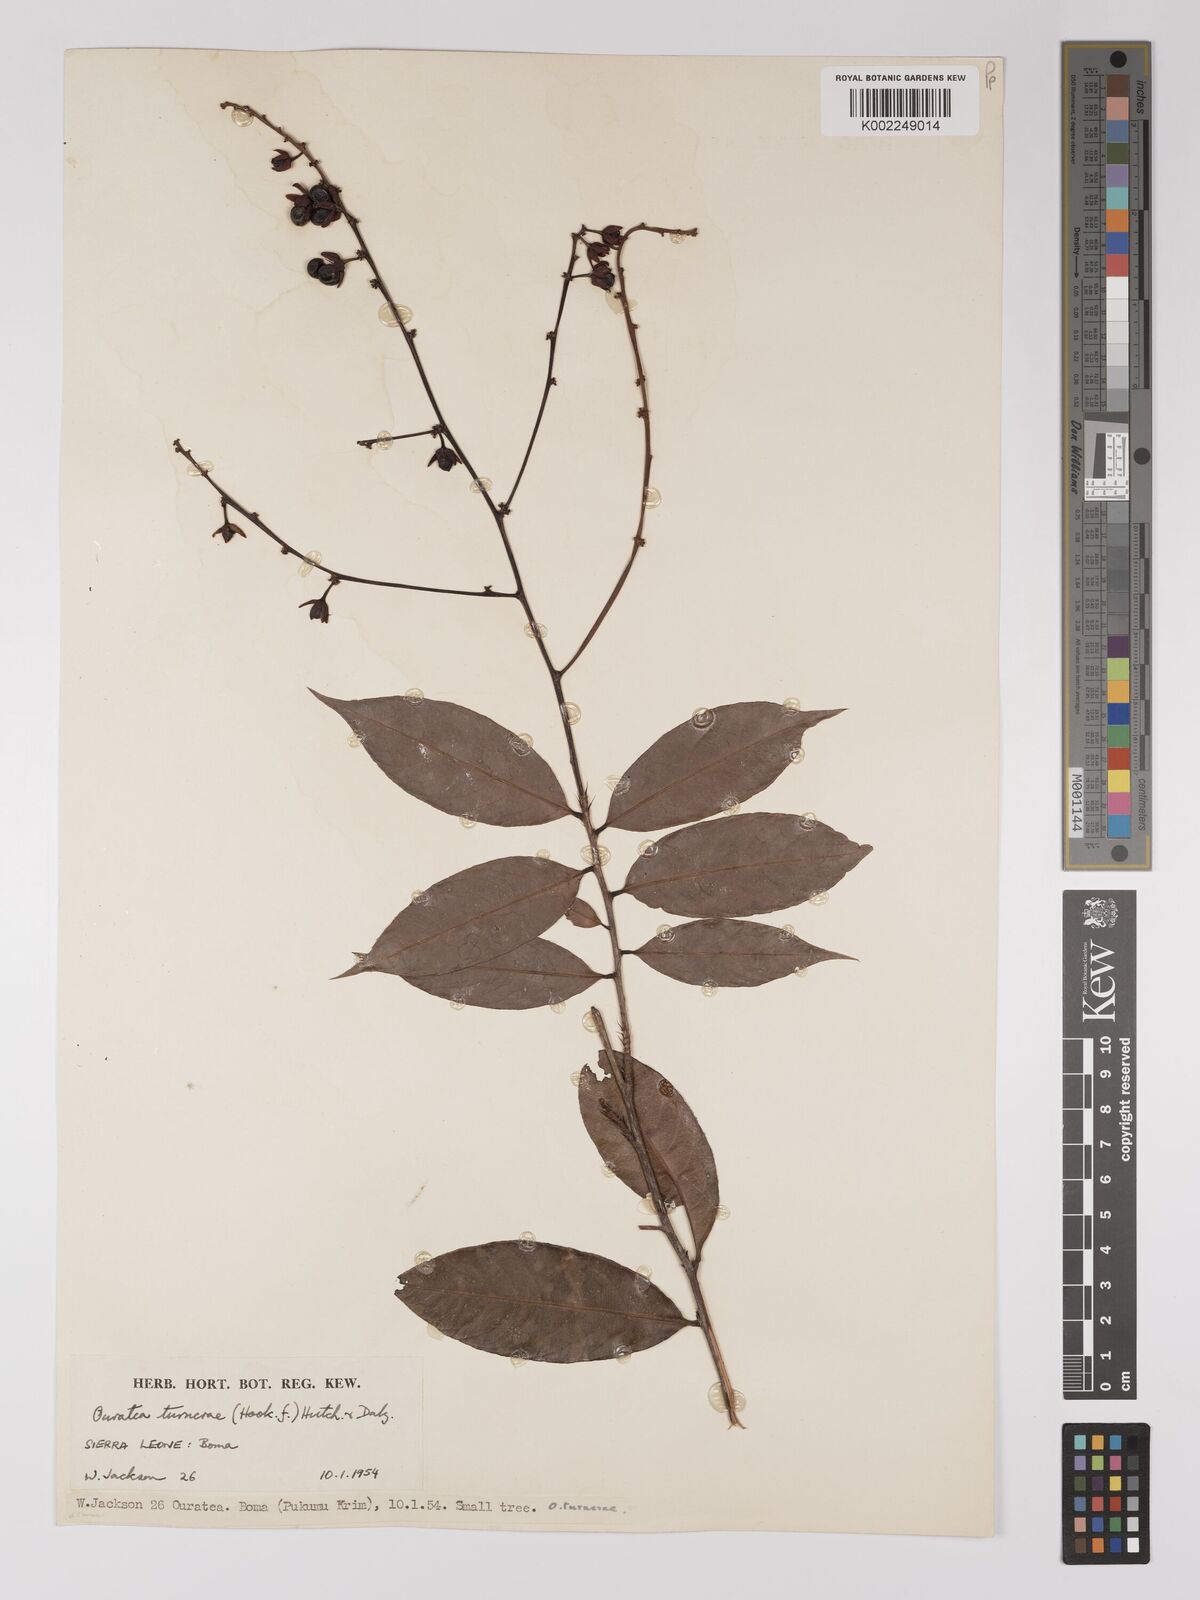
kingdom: Plantae
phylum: Tracheophyta
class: Magnoliopsida
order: Malpighiales
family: Ochnaceae
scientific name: Ochnaceae
